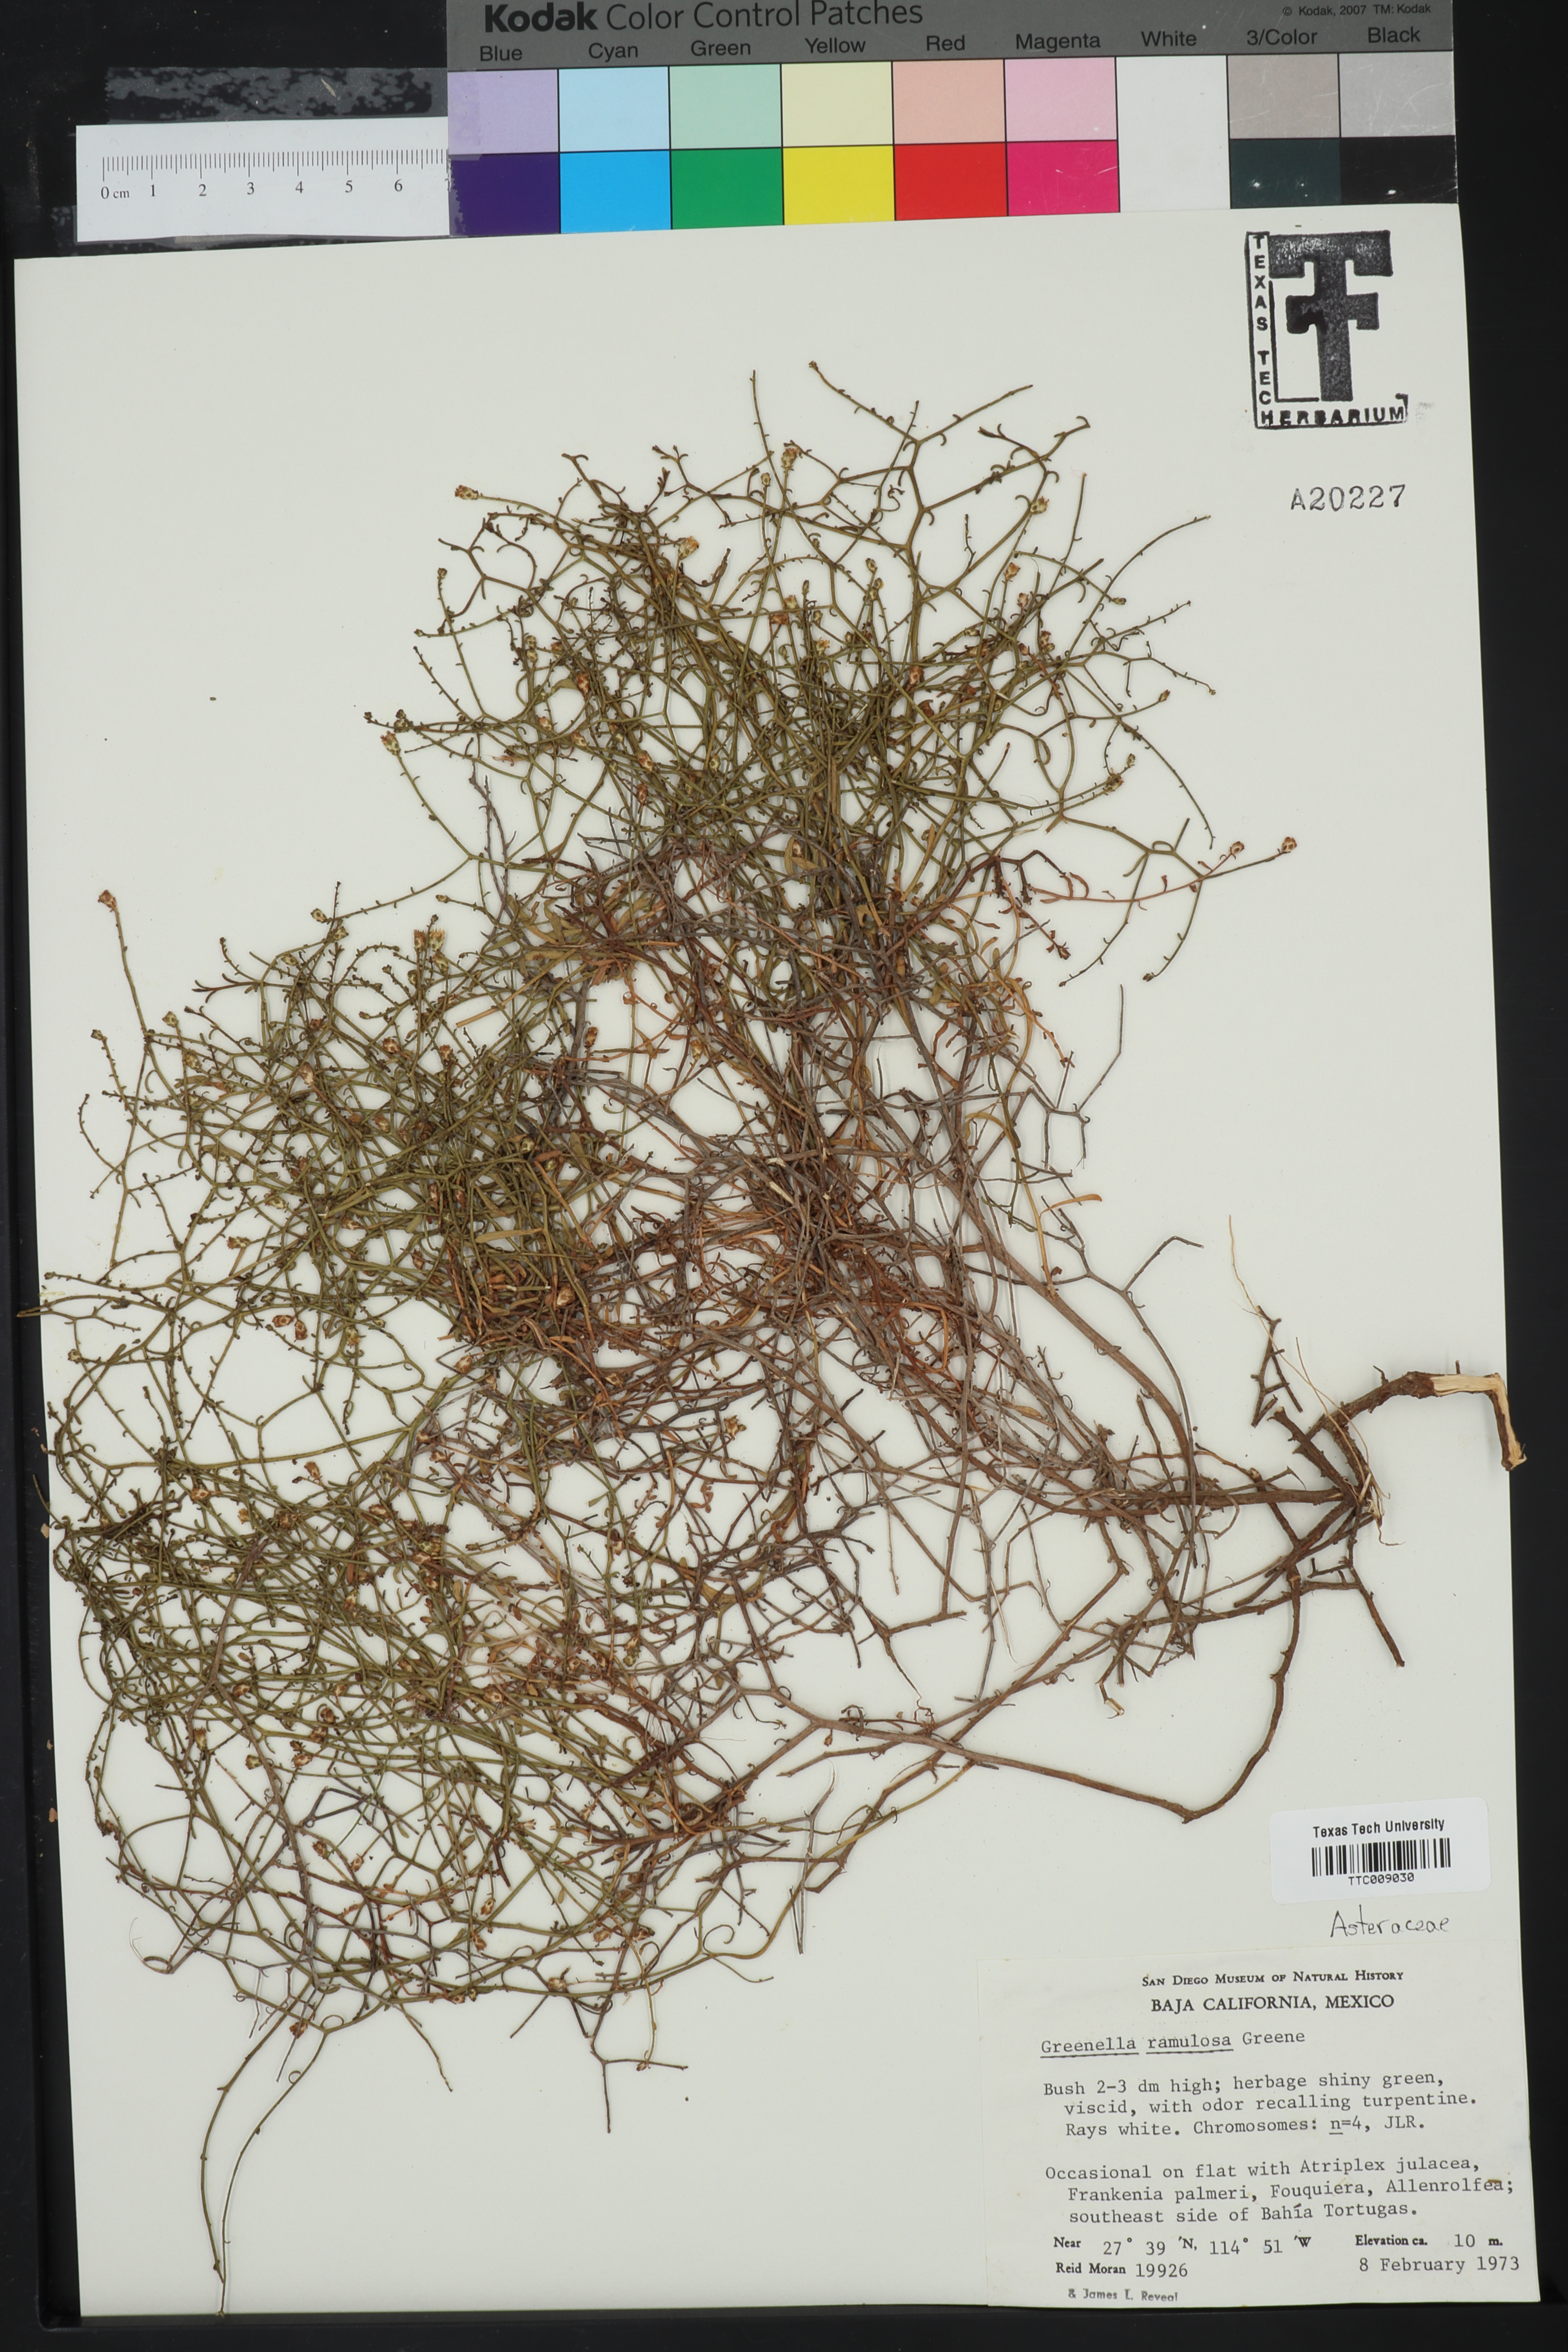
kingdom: Plantae
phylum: Tracheophyta
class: Magnoliopsida
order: Asterales
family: Asteraceae
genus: Gutierrezia
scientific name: Gutierrezia ramulosa
